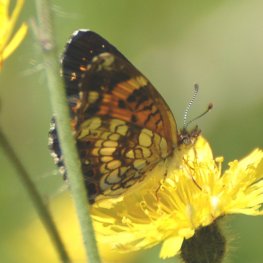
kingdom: Animalia
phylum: Arthropoda
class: Insecta
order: Lepidoptera
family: Nymphalidae
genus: Chlosyne
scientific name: Chlosyne nycteis
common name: Silvery Checkerspot
